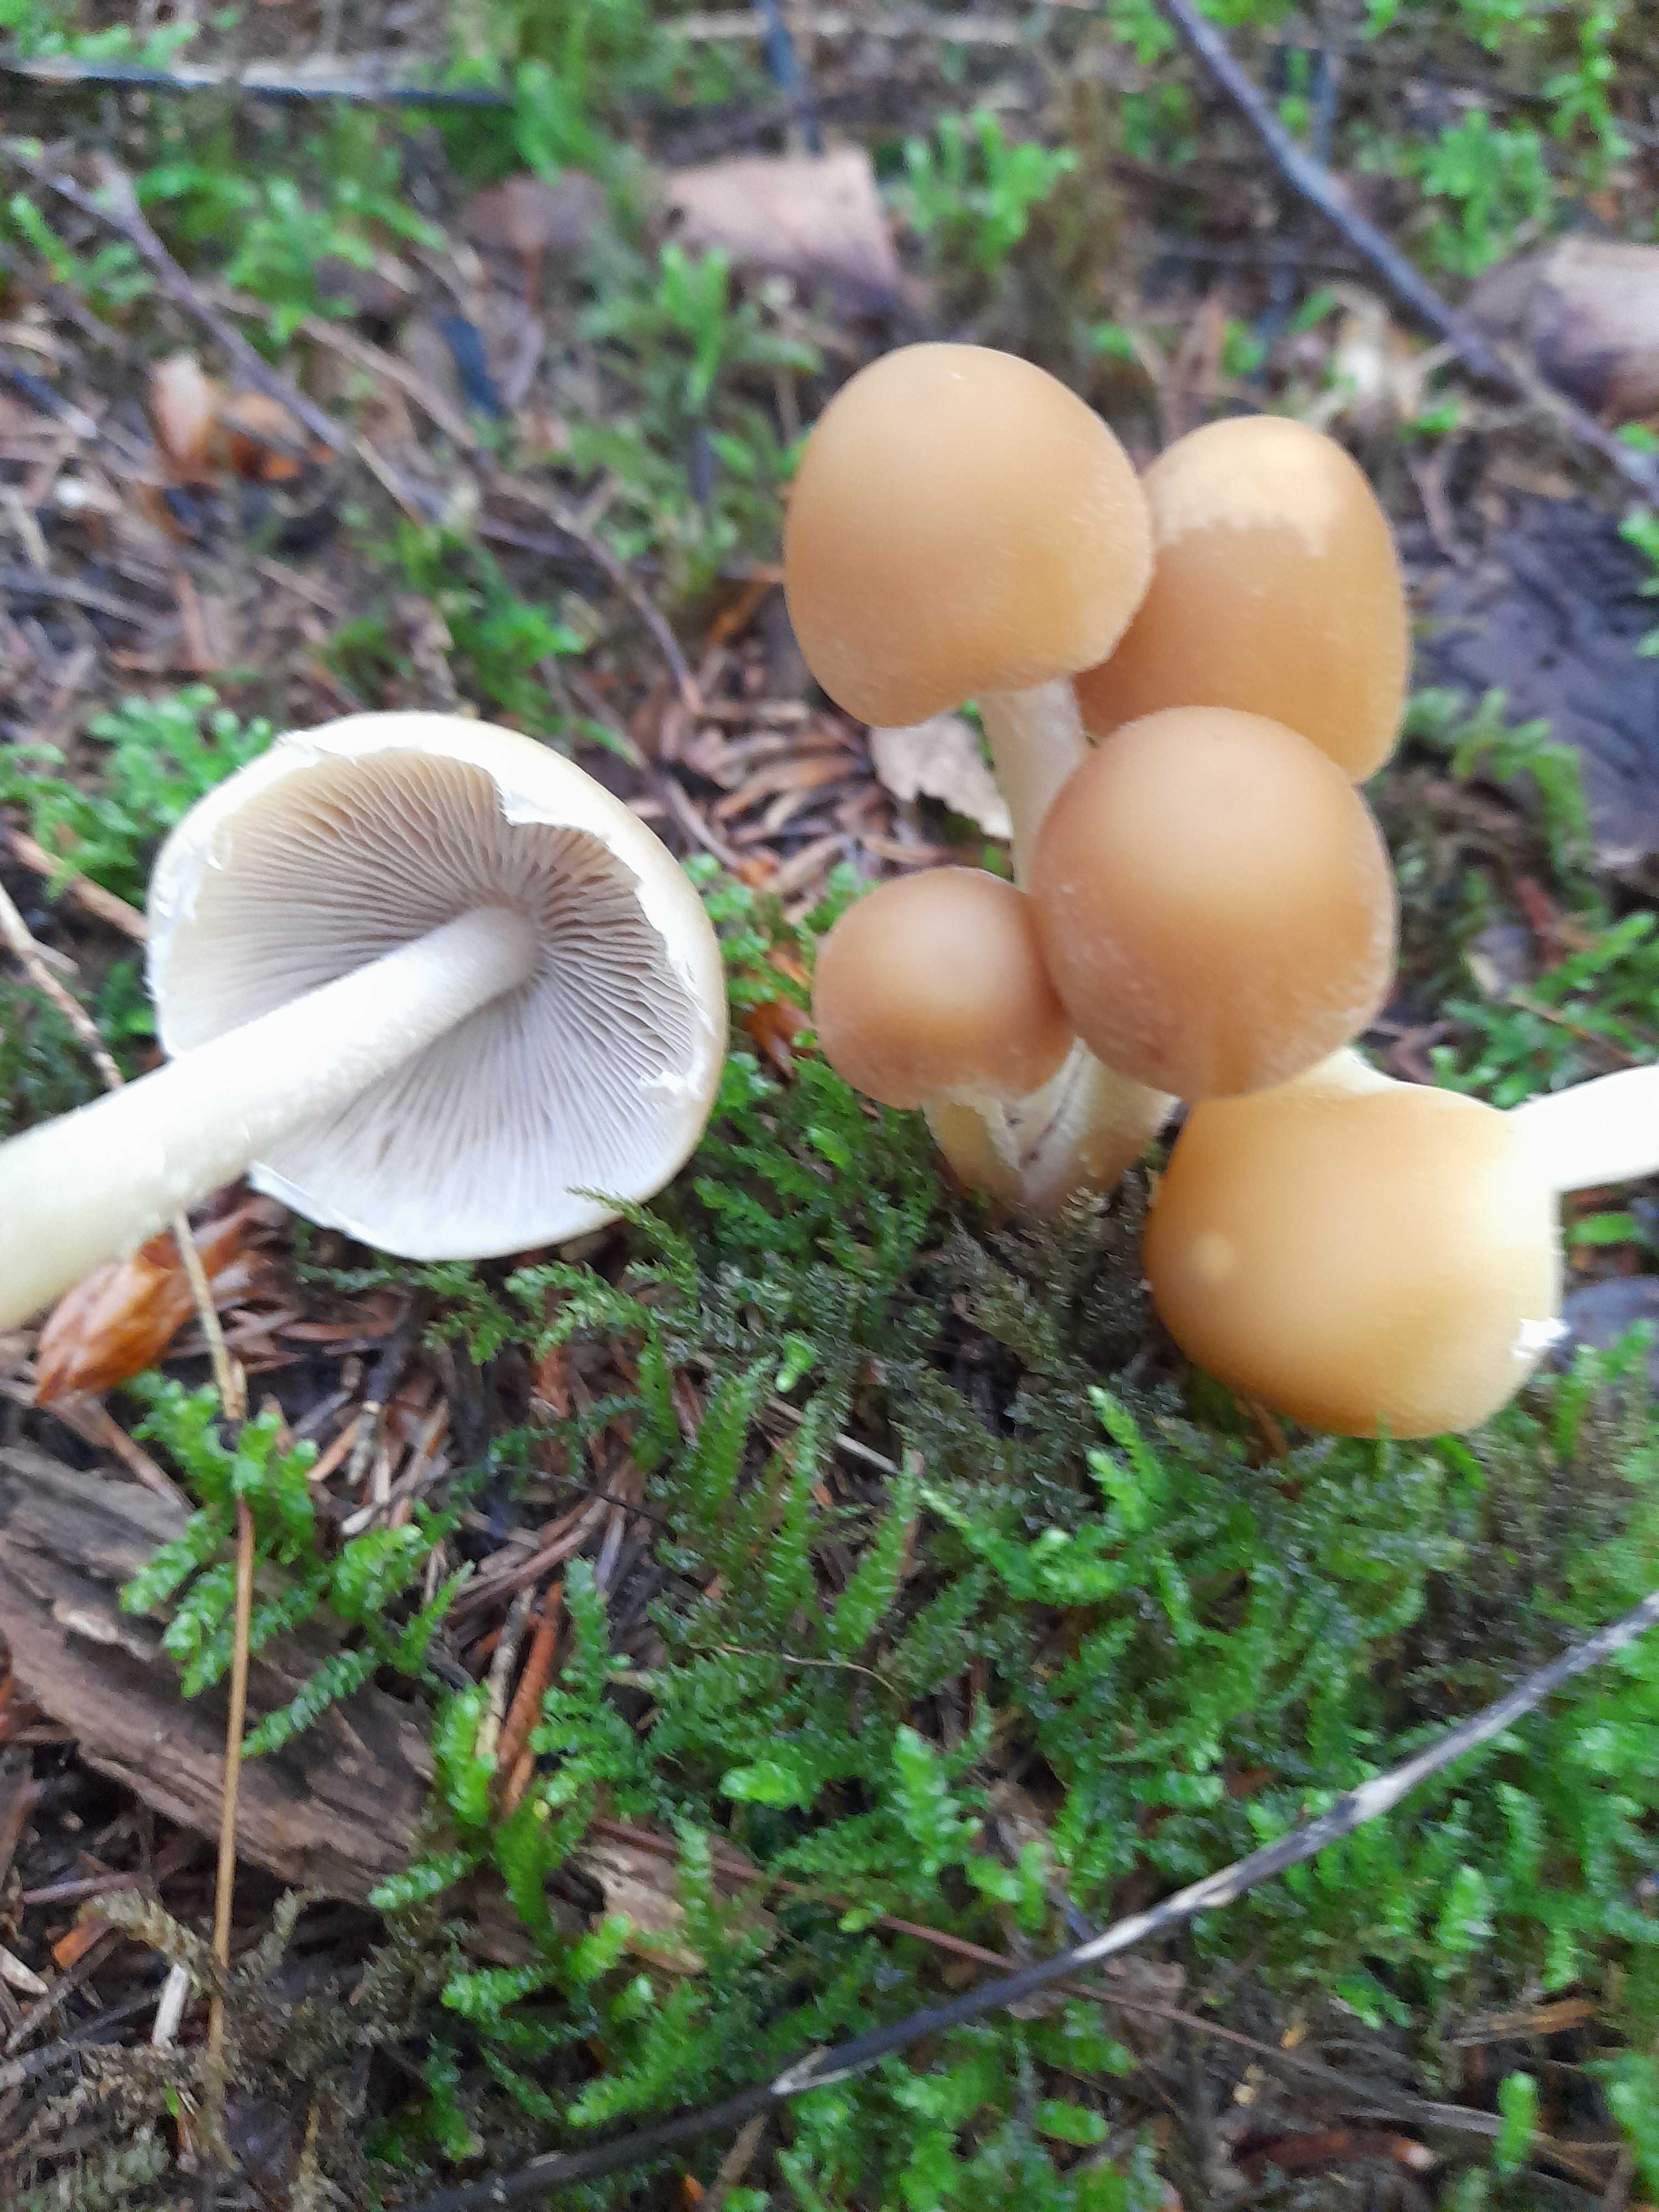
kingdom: Fungi
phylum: Basidiomycota
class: Agaricomycetes
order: Agaricales
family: Psathyrellaceae
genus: Candolleomyces
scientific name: Candolleomyces candolleanus
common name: Candolles mørkhat
